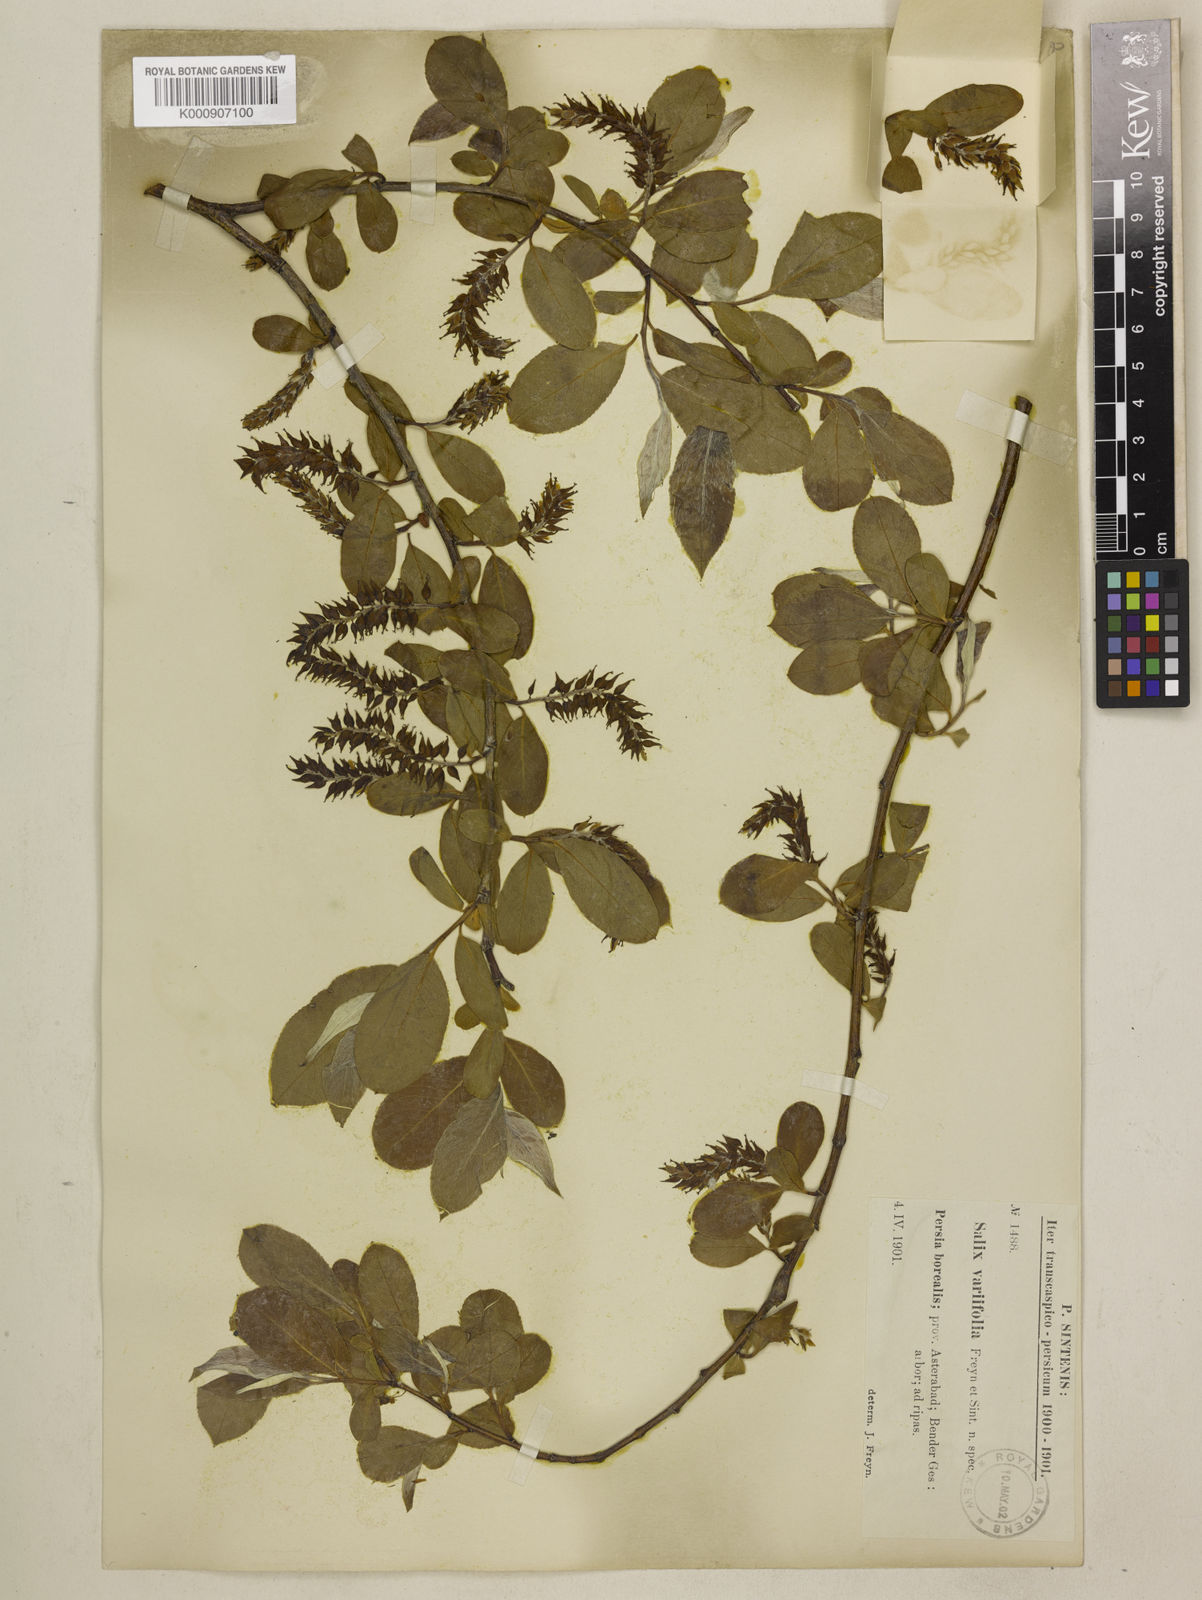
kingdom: Plantae
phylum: Tracheophyta
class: Magnoliopsida
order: Malpighiales
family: Salicaceae
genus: Salix
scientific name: Salix excelsa
